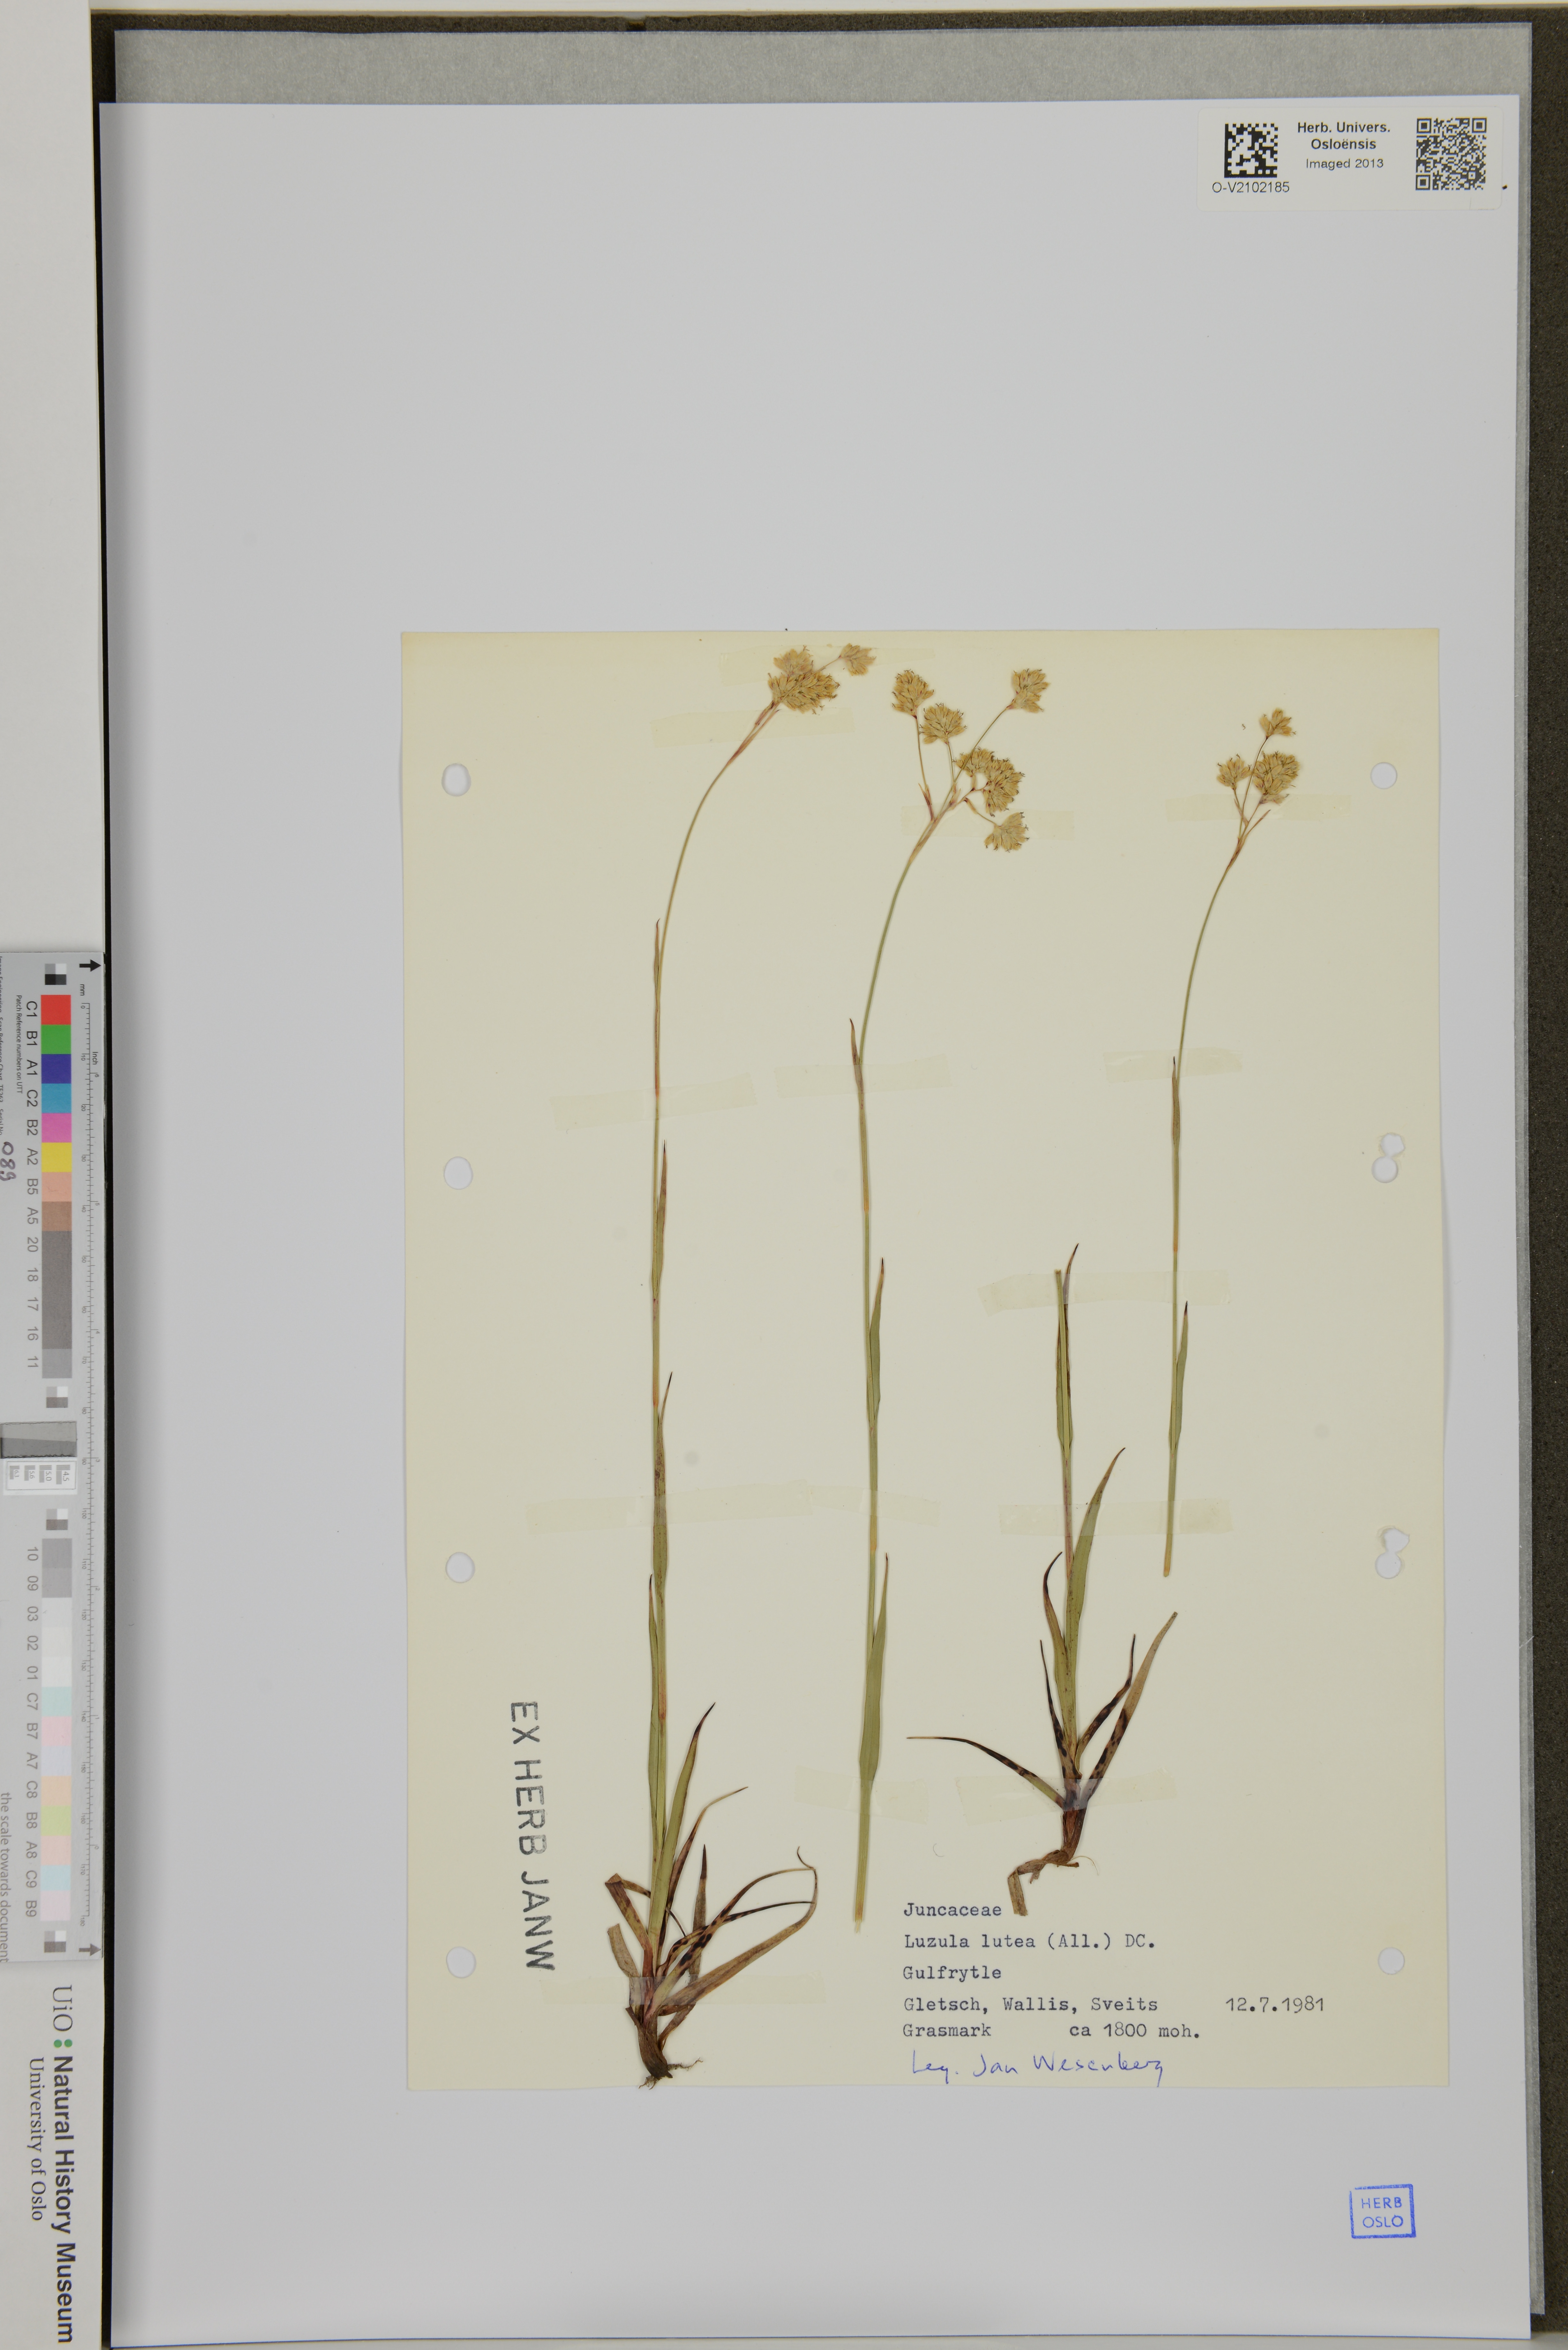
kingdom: Plantae
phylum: Tracheophyta
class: Liliopsida
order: Poales
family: Juncaceae
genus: Luzula
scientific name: Luzula lutea
